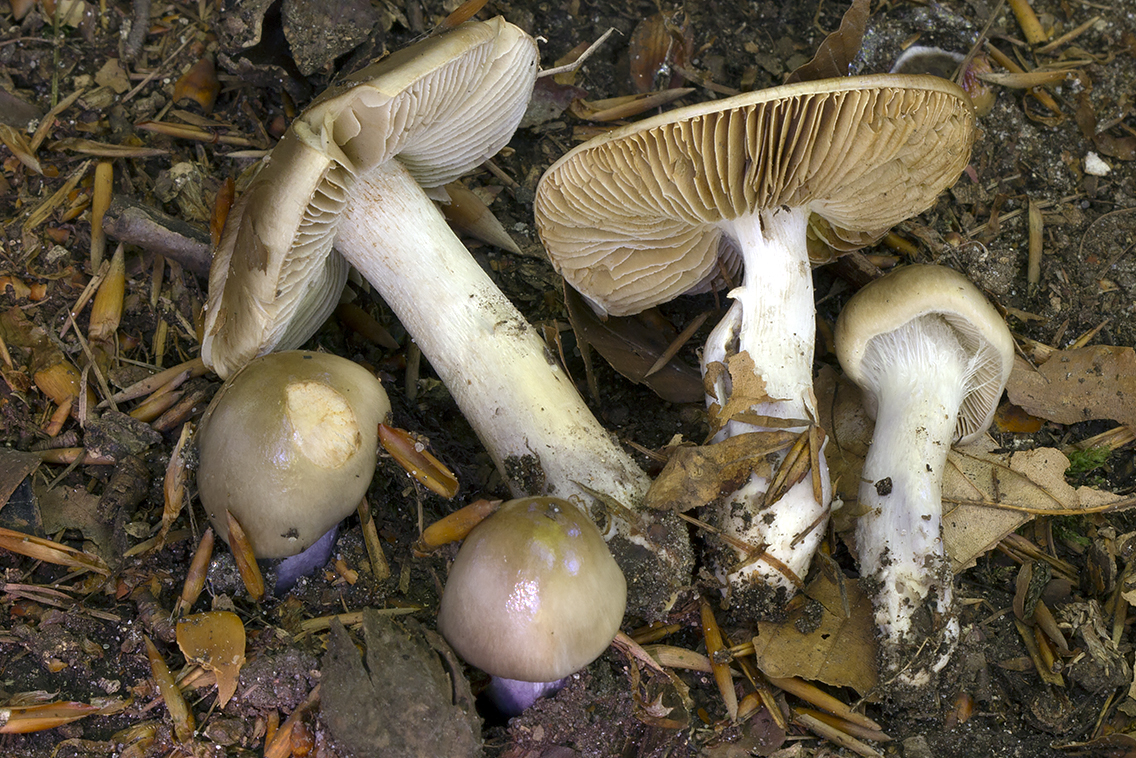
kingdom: Fungi
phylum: Basidiomycota
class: Agaricomycetes
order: Agaricales
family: Cortinariaceae
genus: Cortinarius
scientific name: Cortinarius livido-ochraceus
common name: halvhøj slørhat
